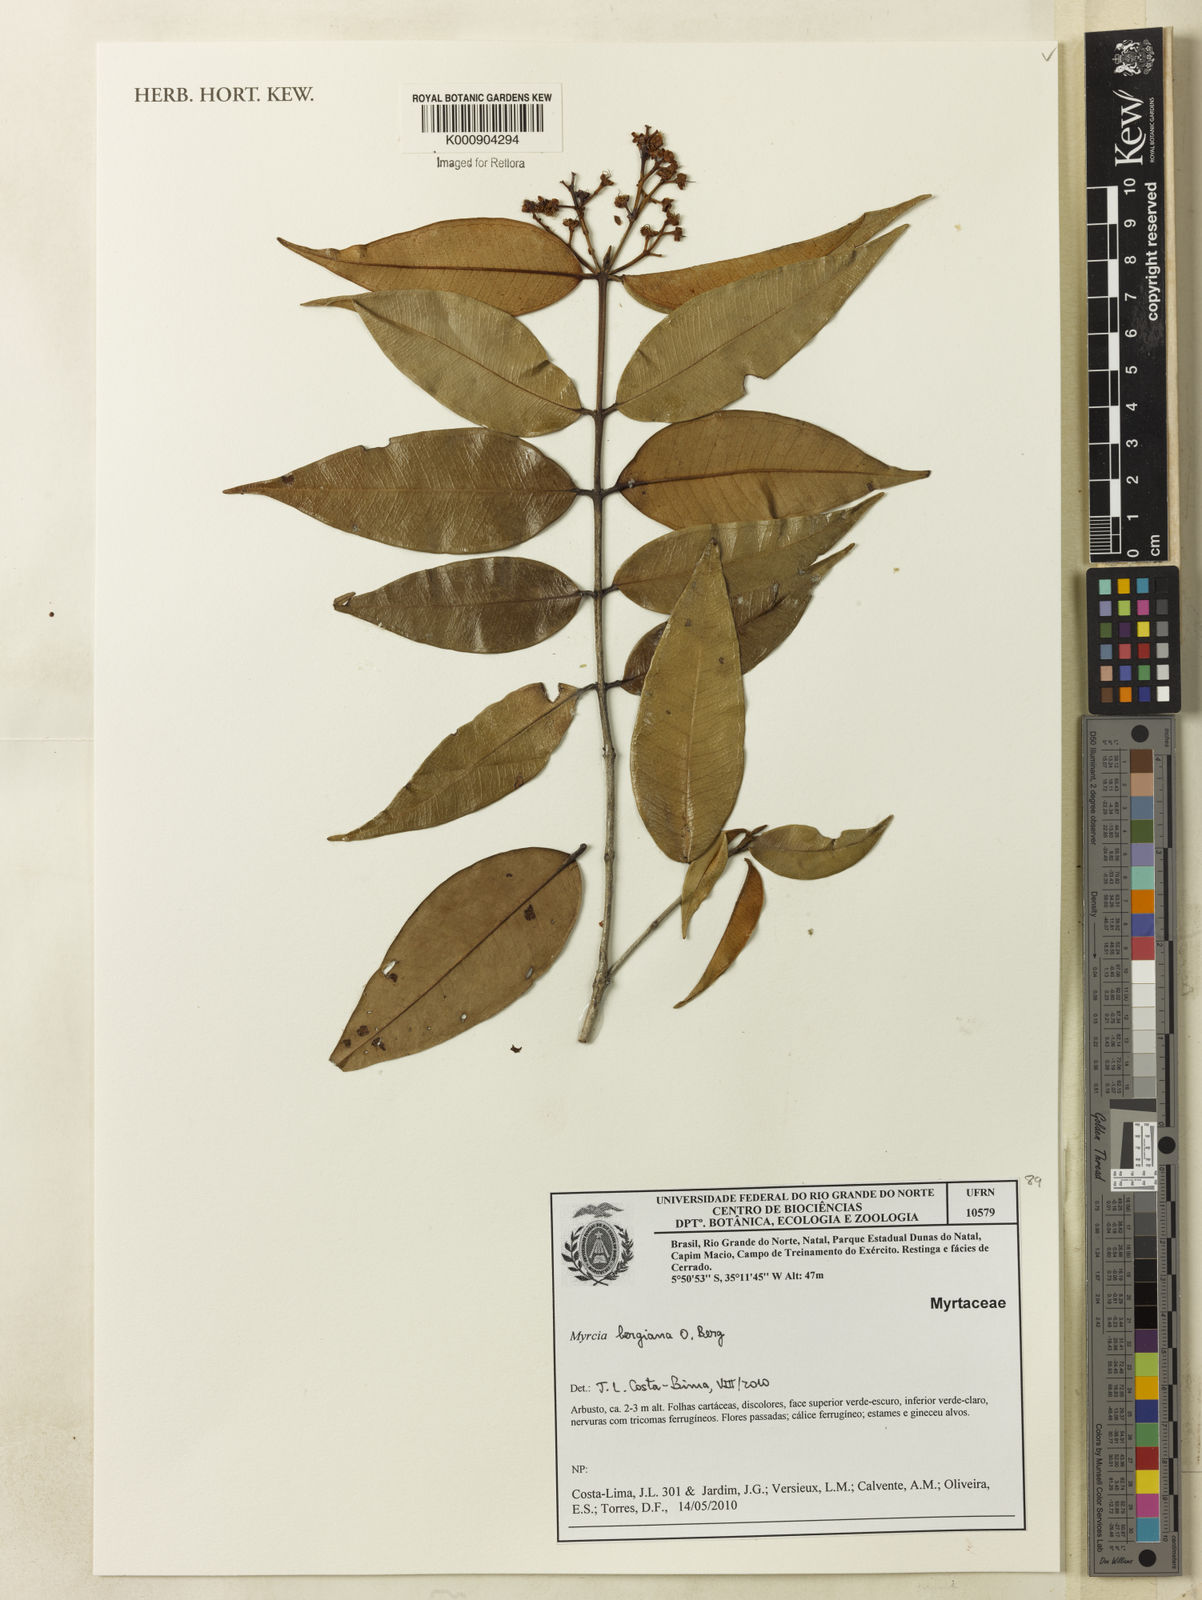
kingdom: Plantae
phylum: Tracheophyta
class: Magnoliopsida
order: Myrtales
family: Myrtaceae
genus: Myrcia
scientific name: Myrcia bergiana
